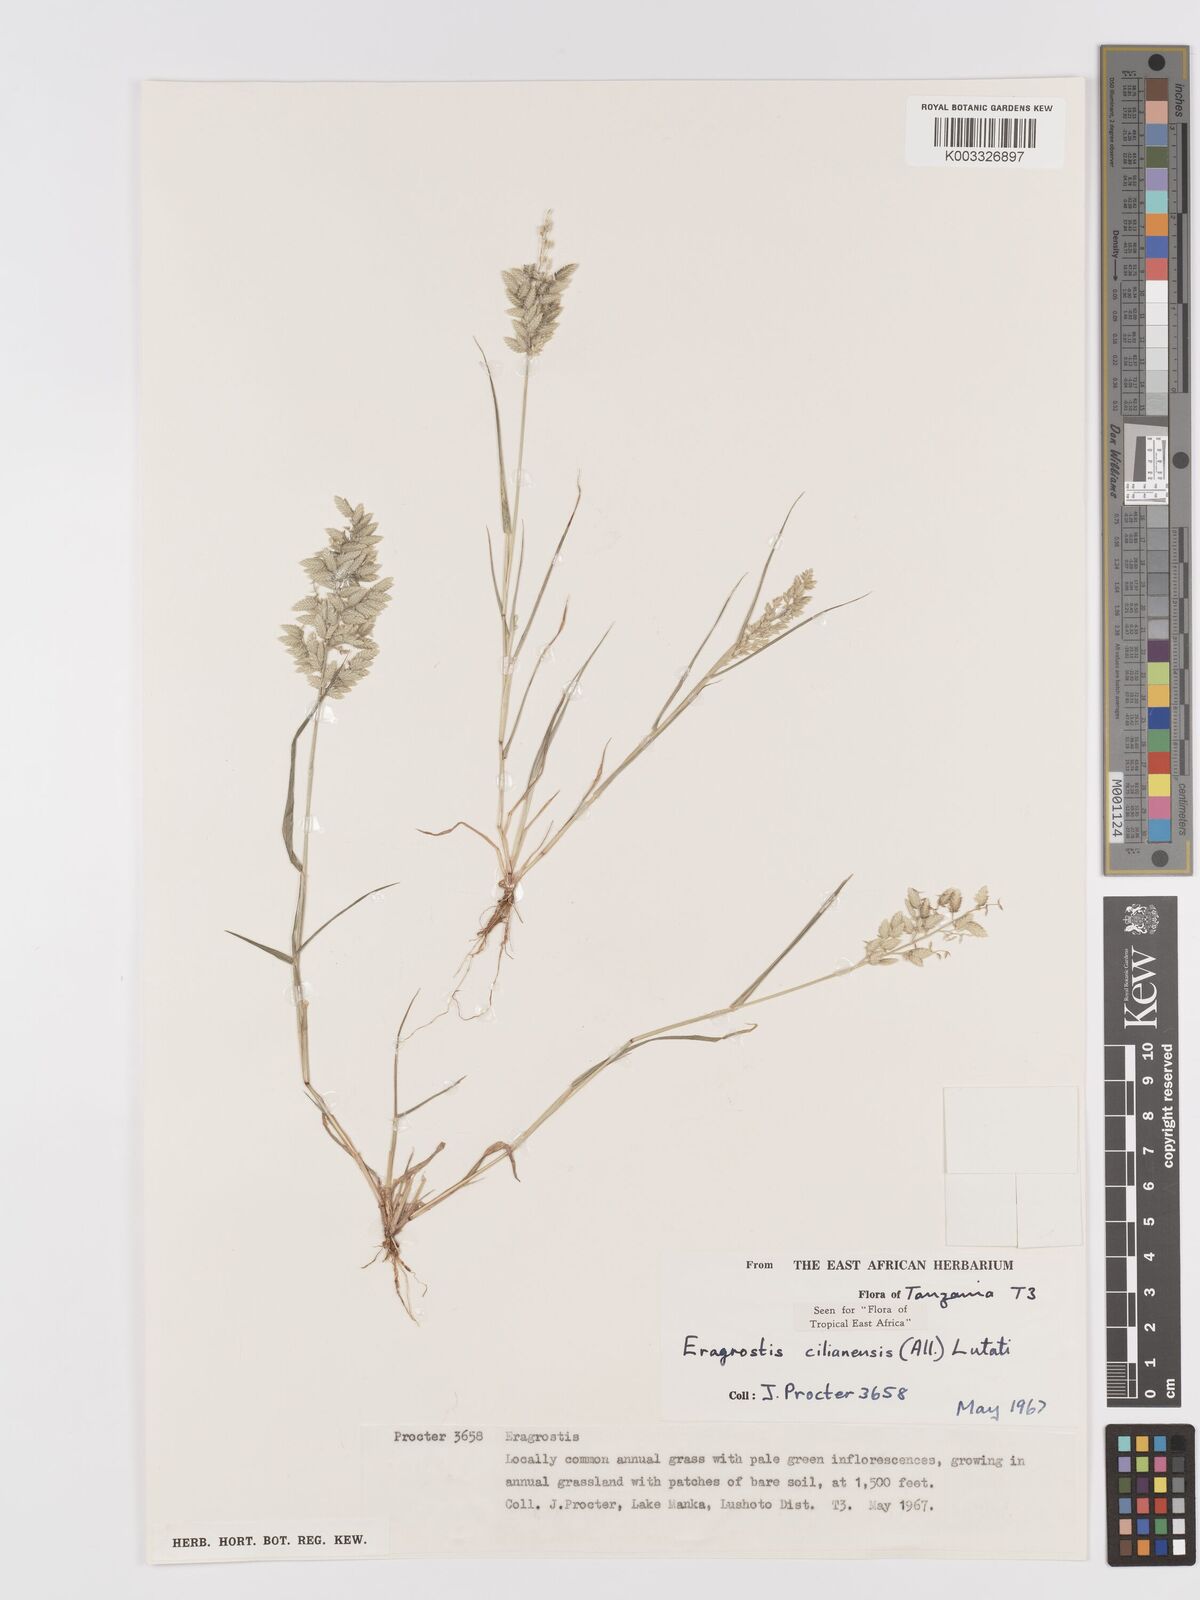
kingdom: Plantae
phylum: Tracheophyta
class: Liliopsida
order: Poales
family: Poaceae
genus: Eragrostis
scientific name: Eragrostis cilianensis
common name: Stinkgrass
